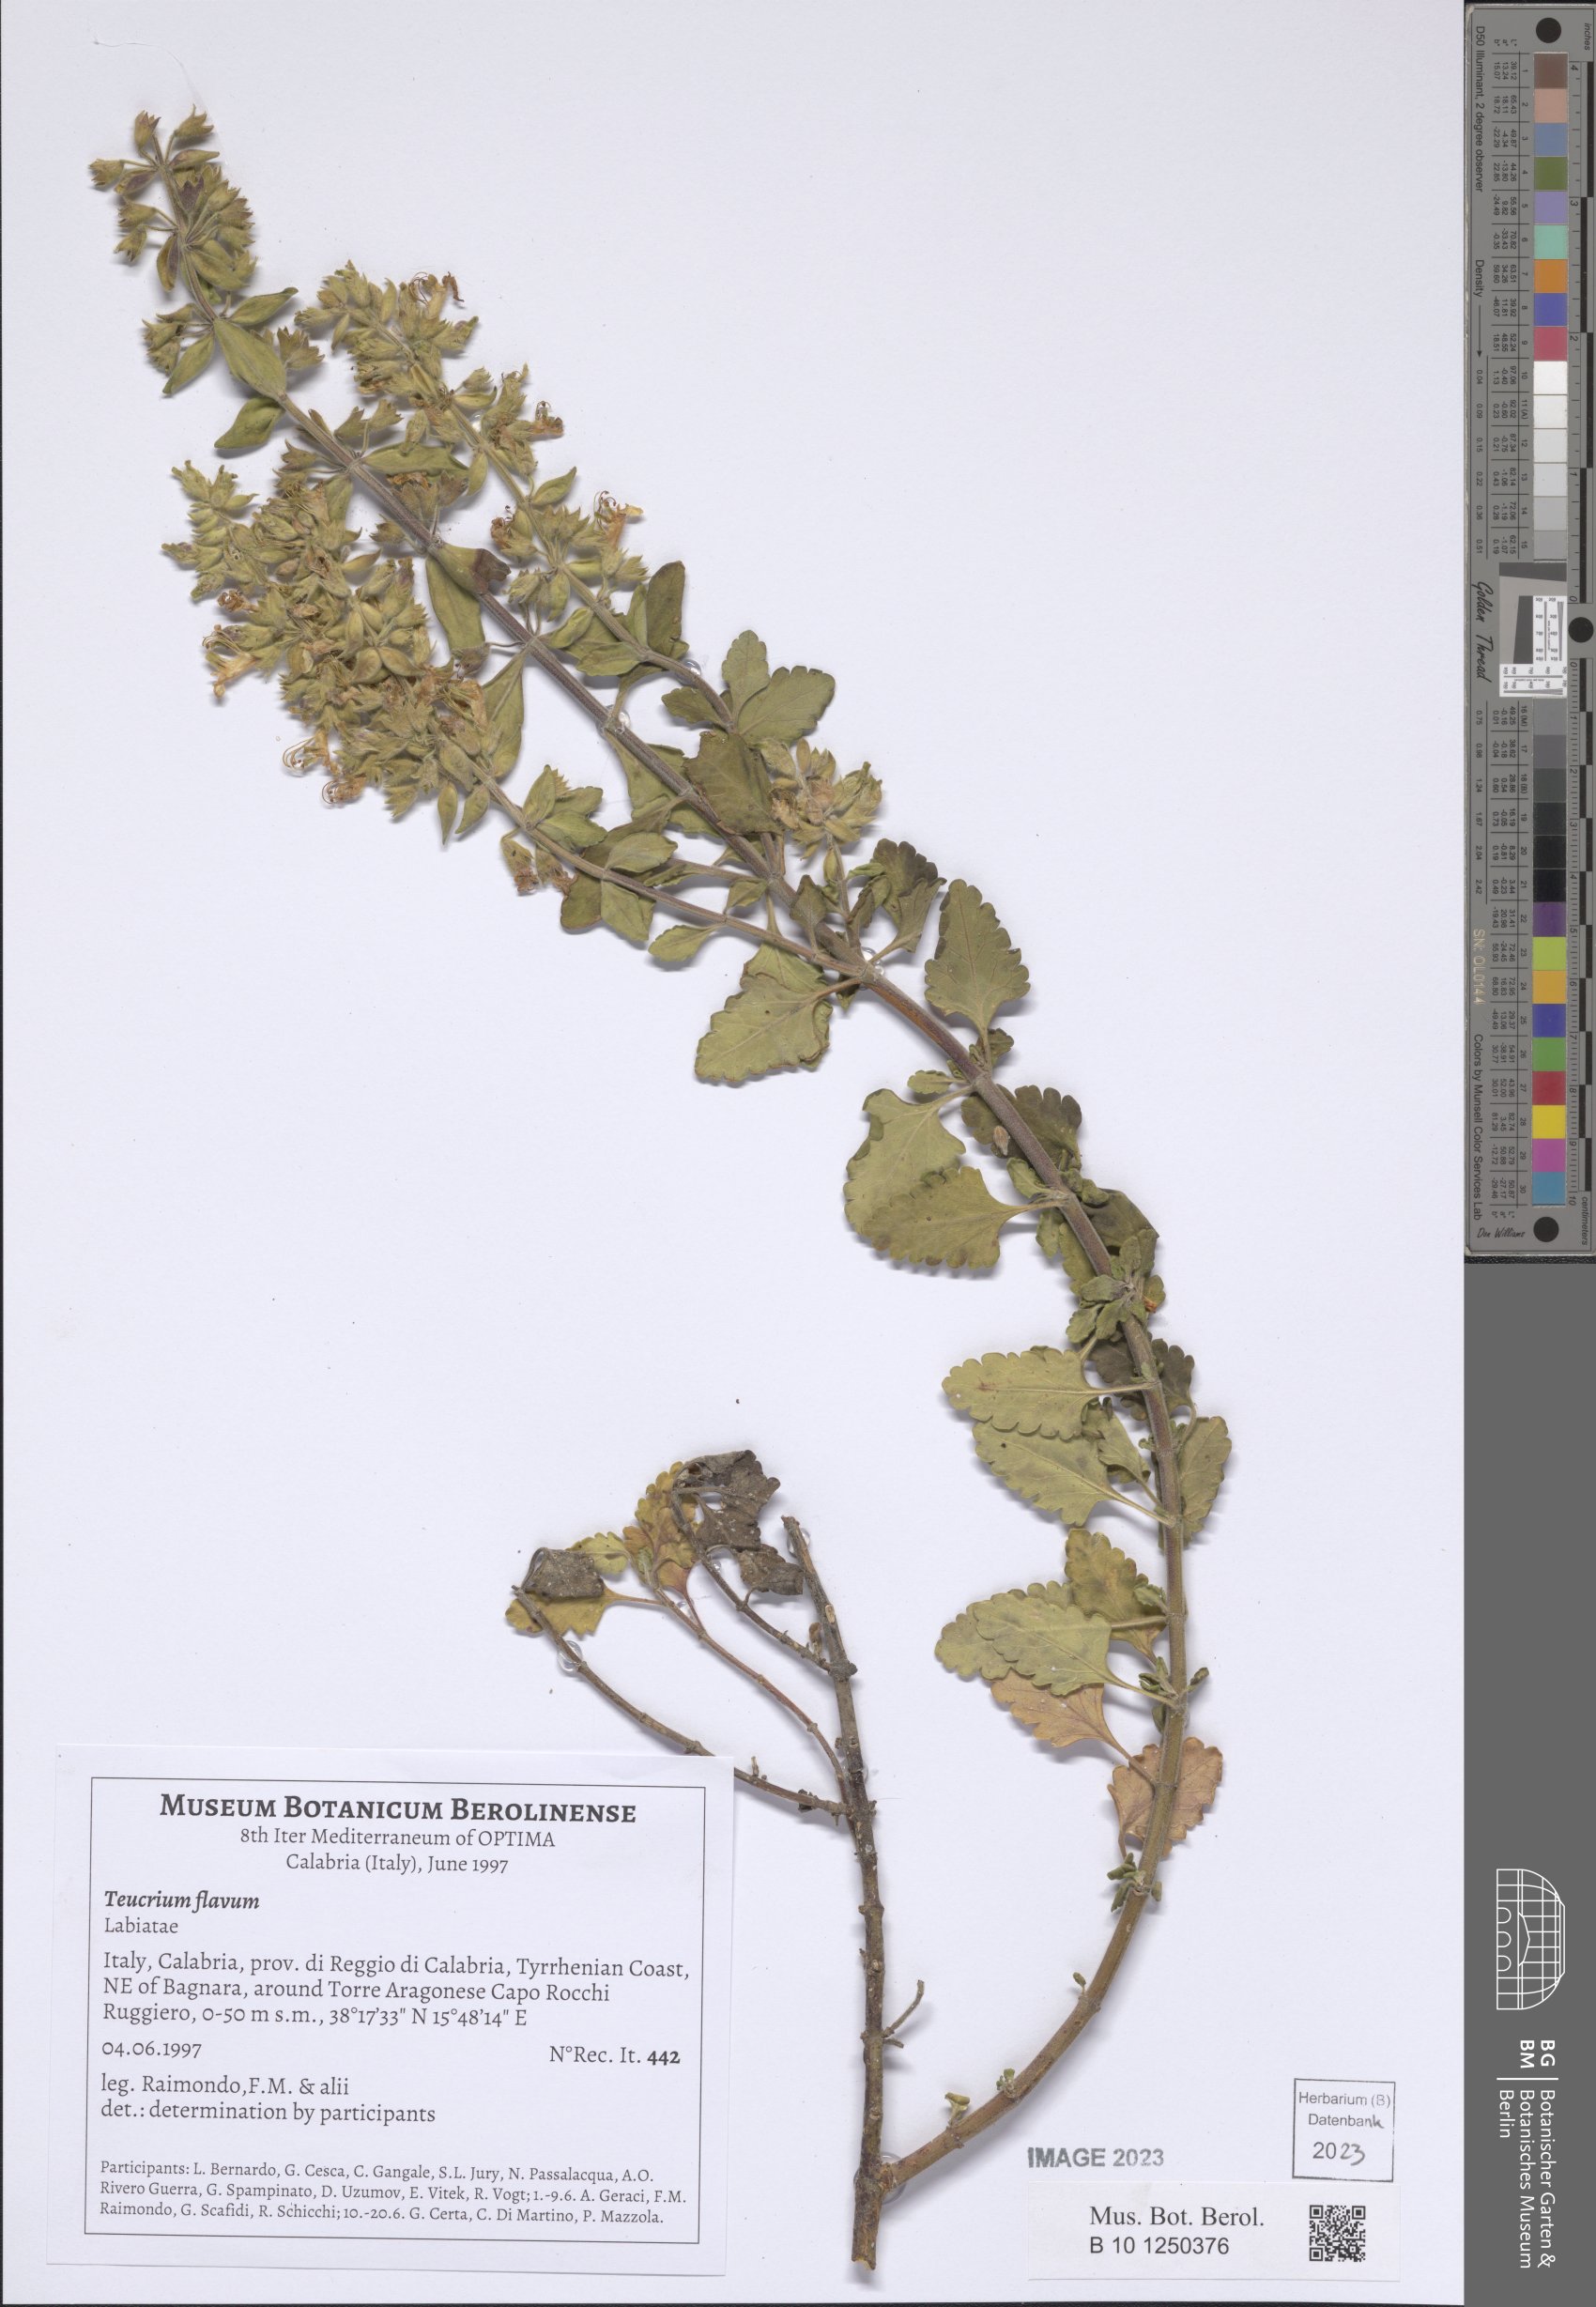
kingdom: Plantae
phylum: Tracheophyta
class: Magnoliopsida
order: Lamiales
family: Lamiaceae
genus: Teucrium
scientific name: Teucrium flavum
